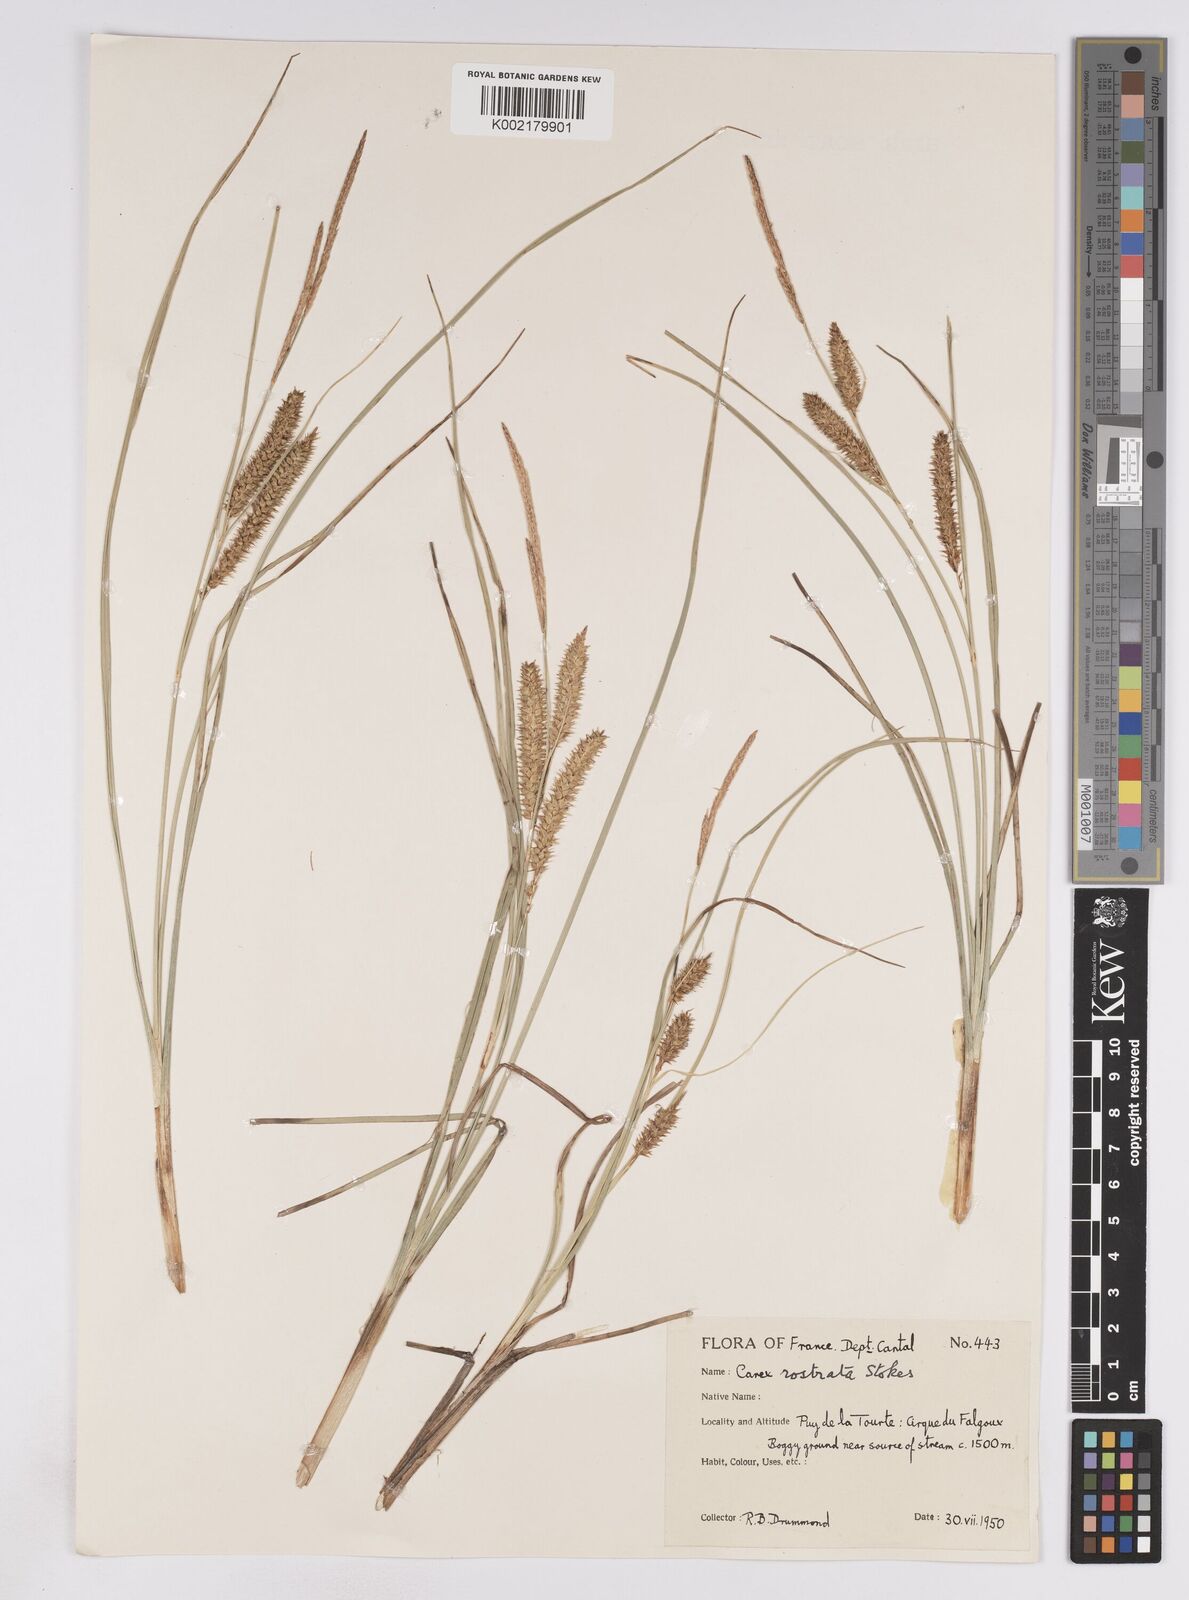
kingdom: Plantae
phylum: Tracheophyta
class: Liliopsida
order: Poales
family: Cyperaceae
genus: Carex
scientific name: Carex rostrata
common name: Bottle sedge
